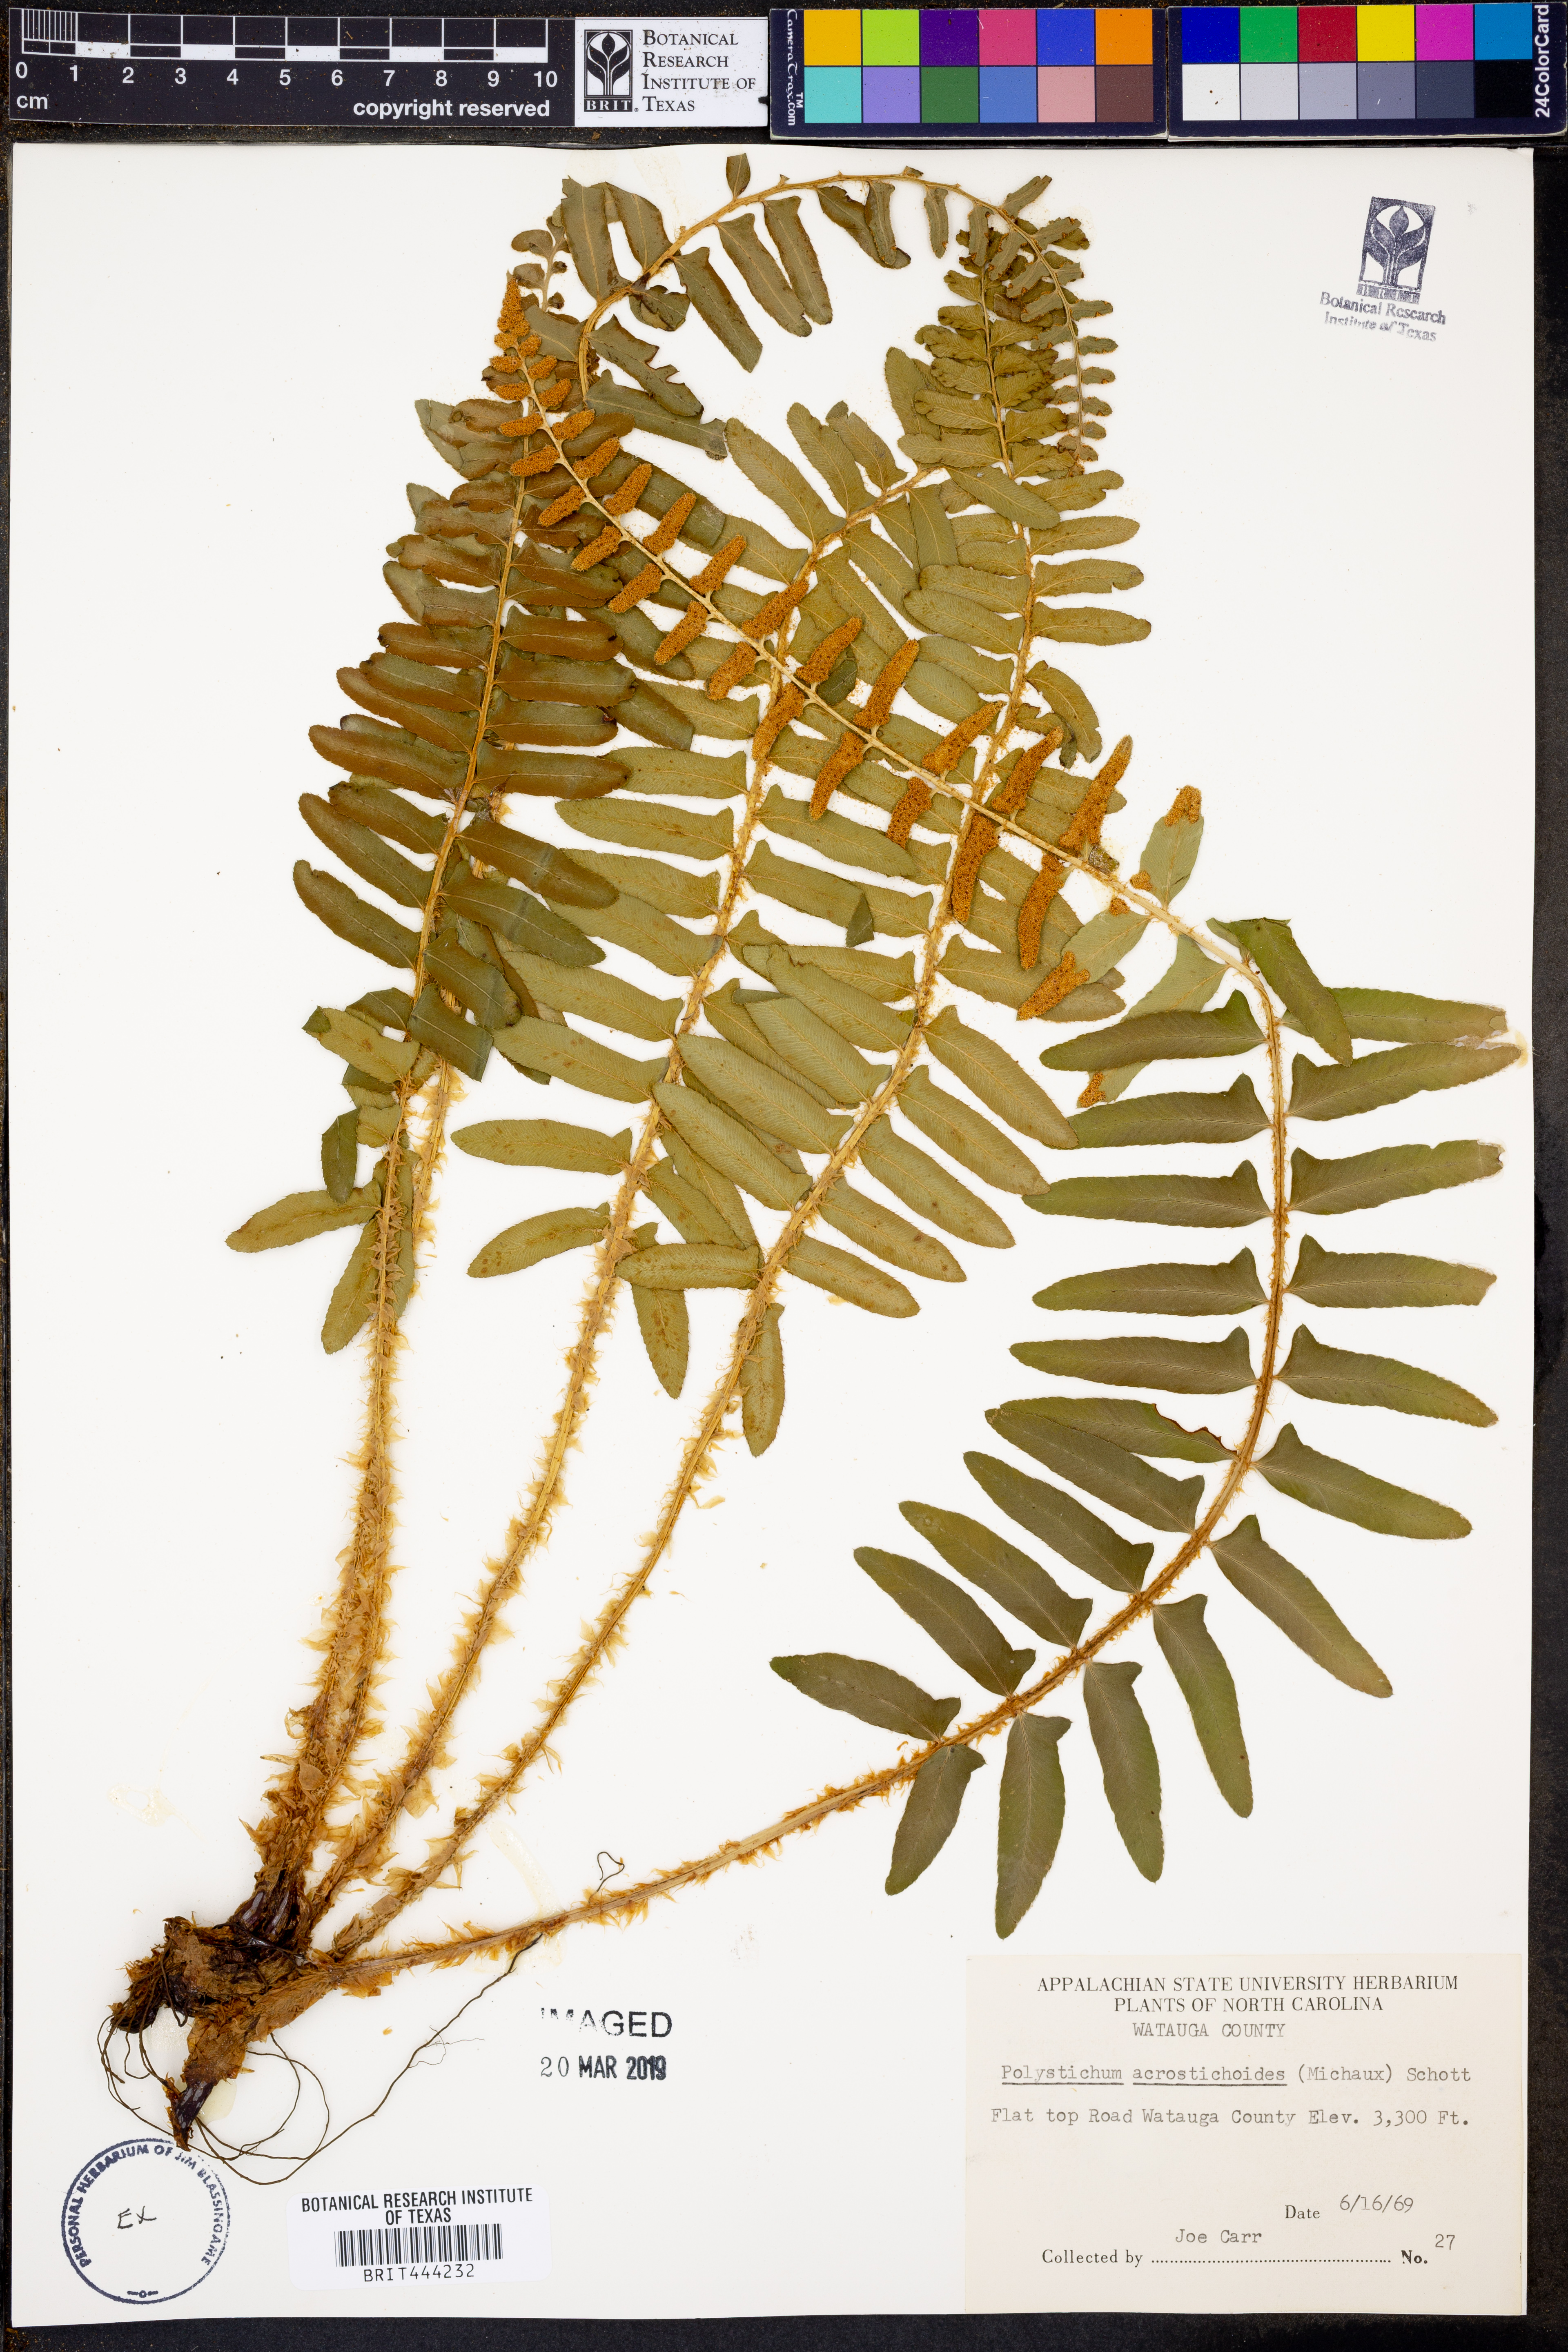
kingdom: Plantae
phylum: Tracheophyta
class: Polypodiopsida
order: Polypodiales
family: Dryopteridaceae
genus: Polystichum
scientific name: Polystichum acrostichoides
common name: Christmas fern
